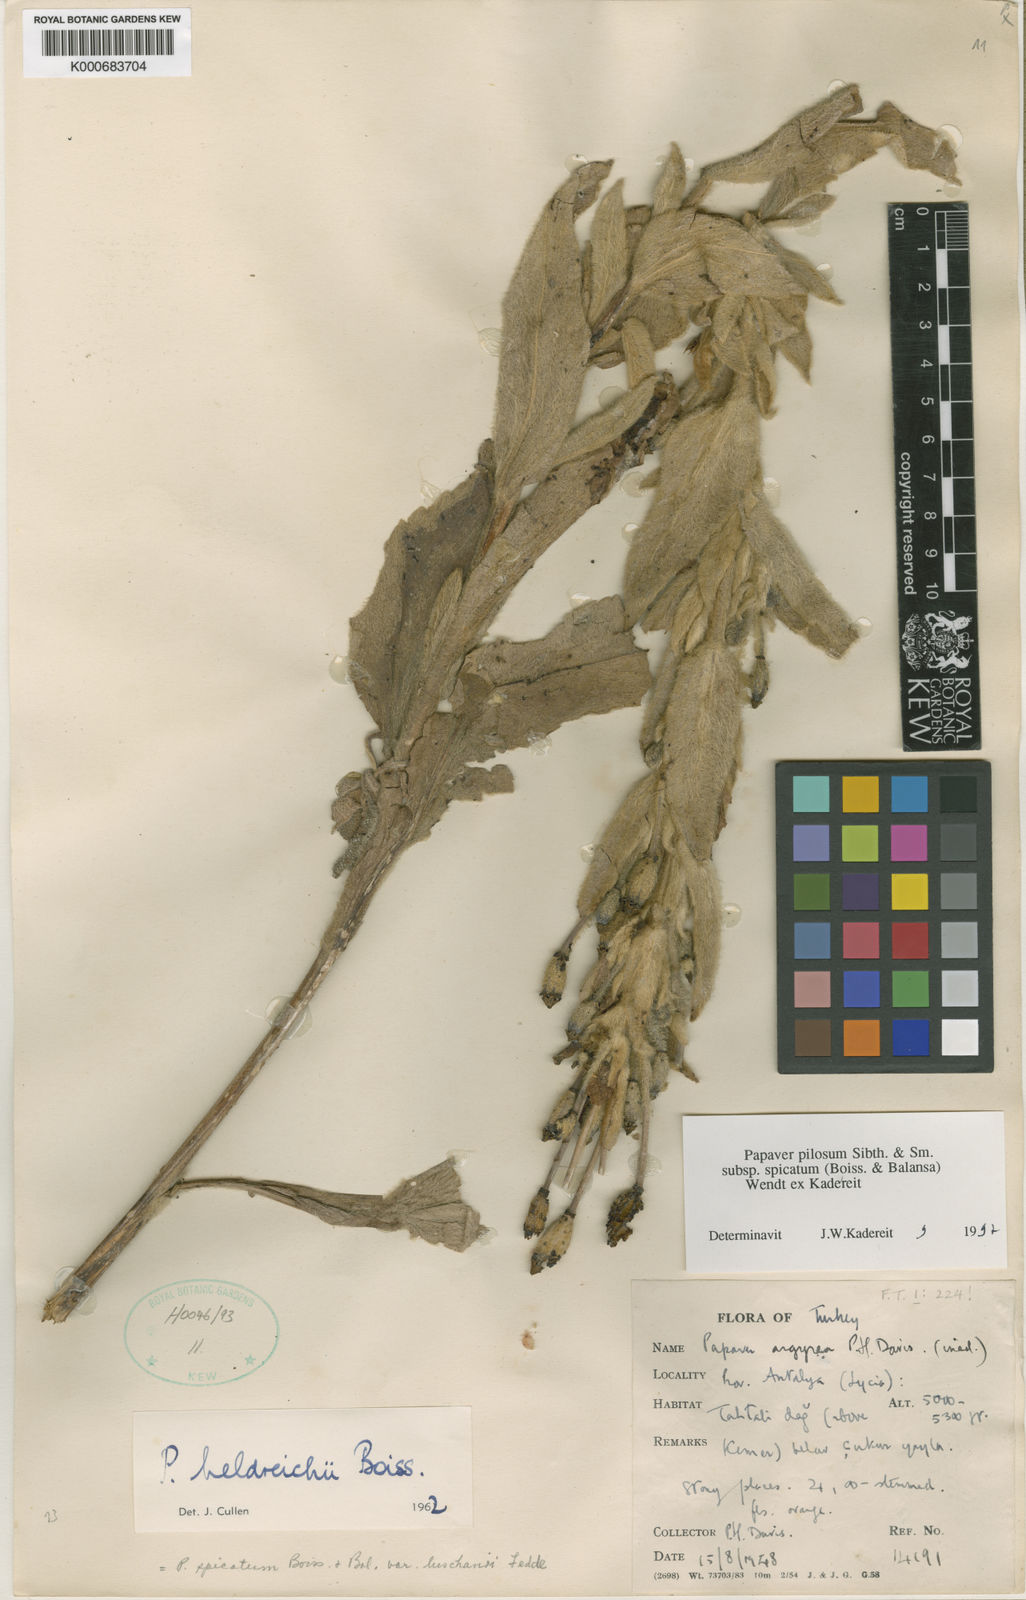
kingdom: Plantae
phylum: Tracheophyta
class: Magnoliopsida
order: Ranunculales
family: Papaveraceae
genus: Papaver
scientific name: Papaver pilosum
